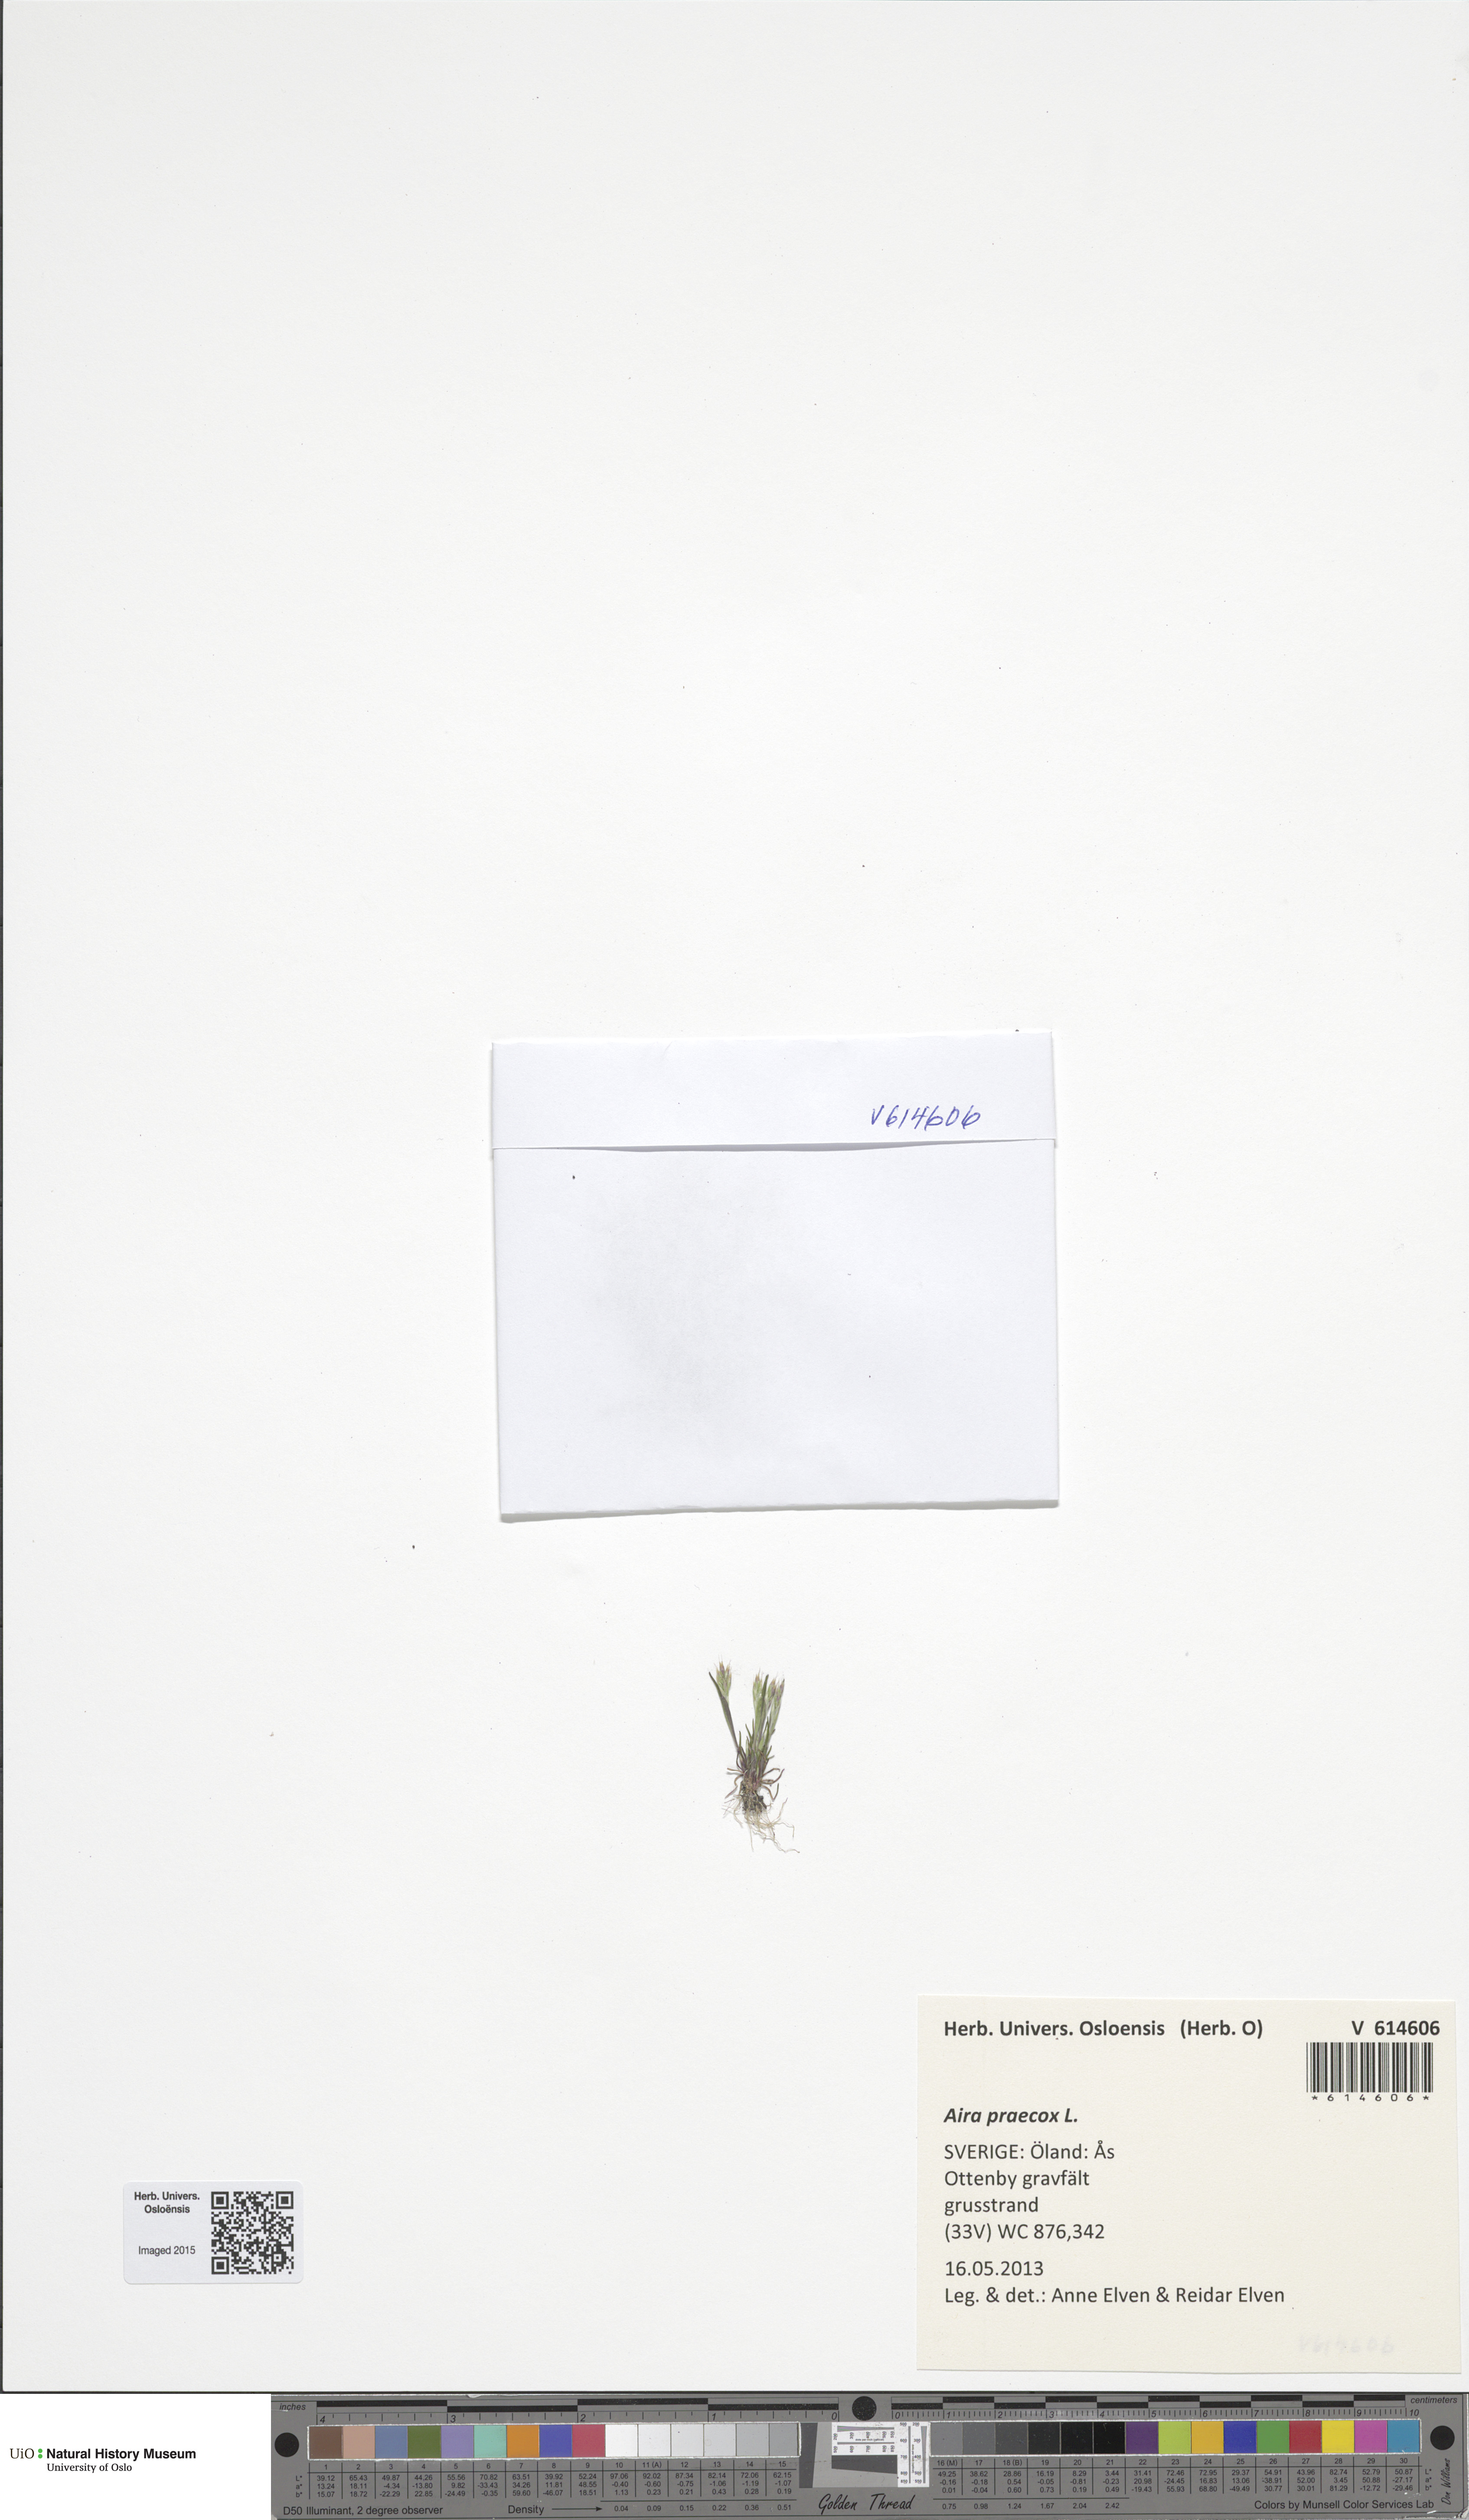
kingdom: Plantae
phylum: Tracheophyta
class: Liliopsida
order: Poales
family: Poaceae
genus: Aira
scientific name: Aira praecox
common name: Early hair-grass
